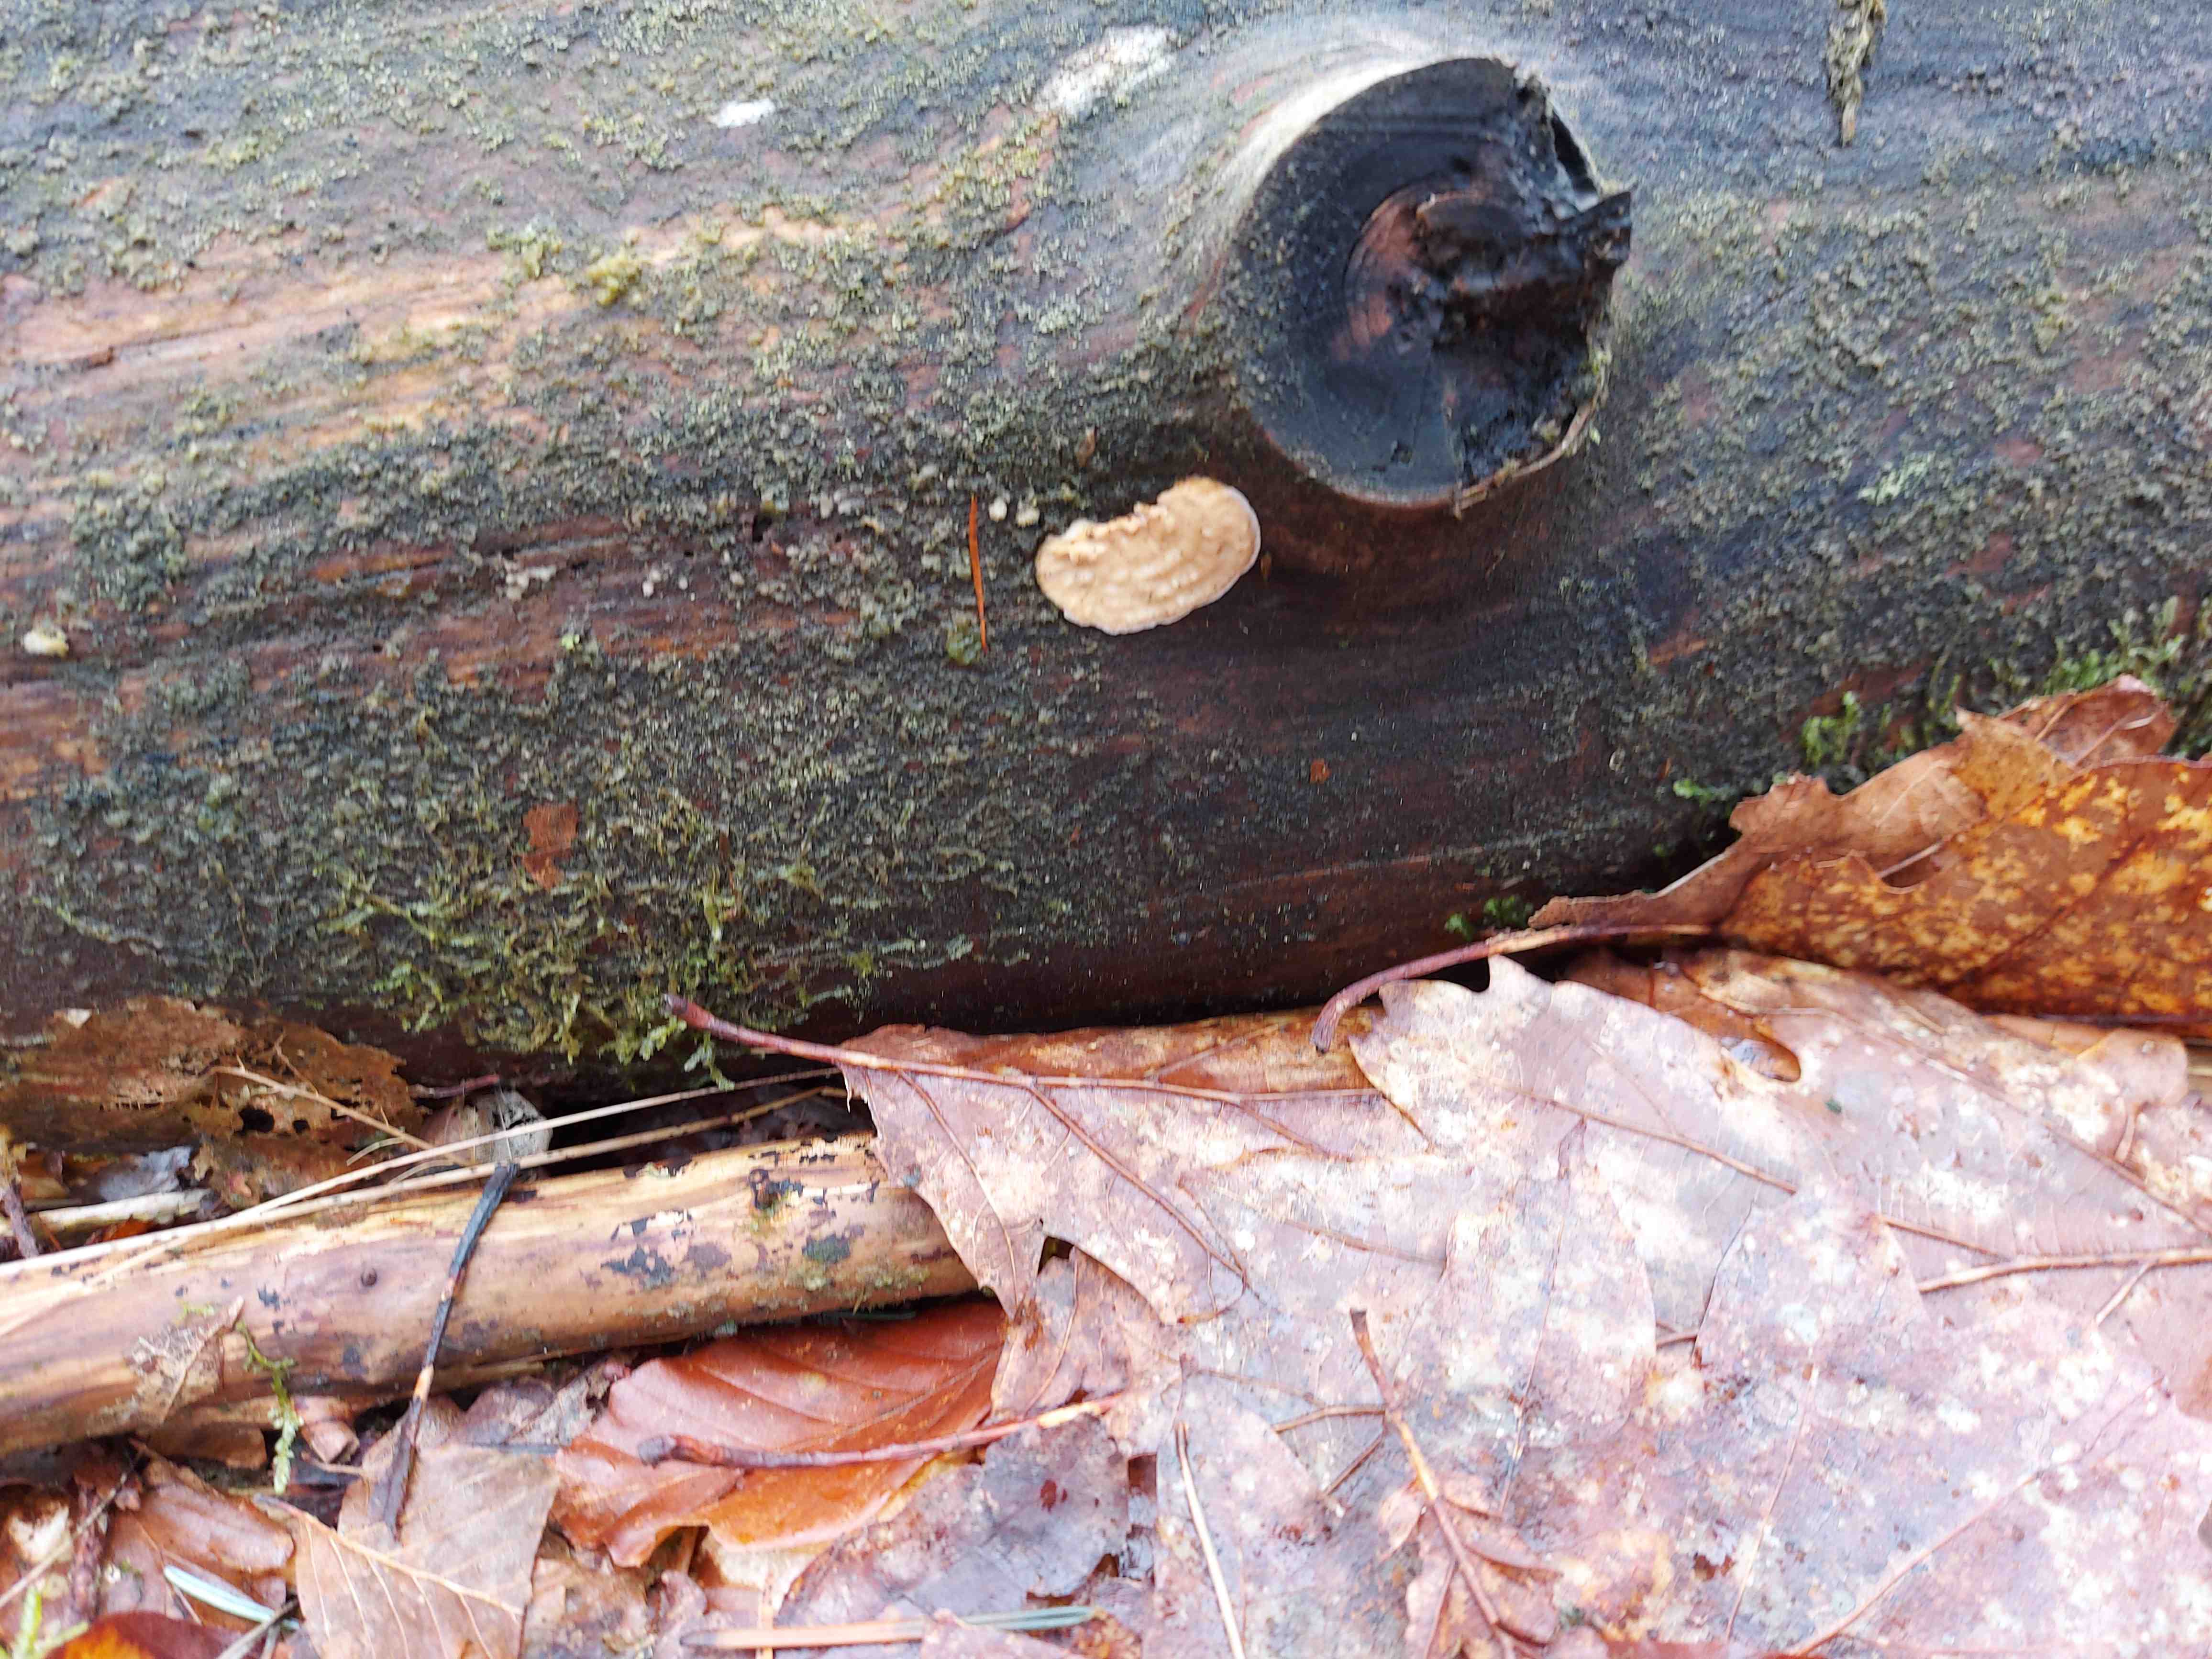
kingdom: Fungi
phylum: Basidiomycota
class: Agaricomycetes
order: Polyporales
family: Dacryobolaceae
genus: Dacryobolus
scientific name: Dacryobolus karstenii
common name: glat vulkanskorpe
